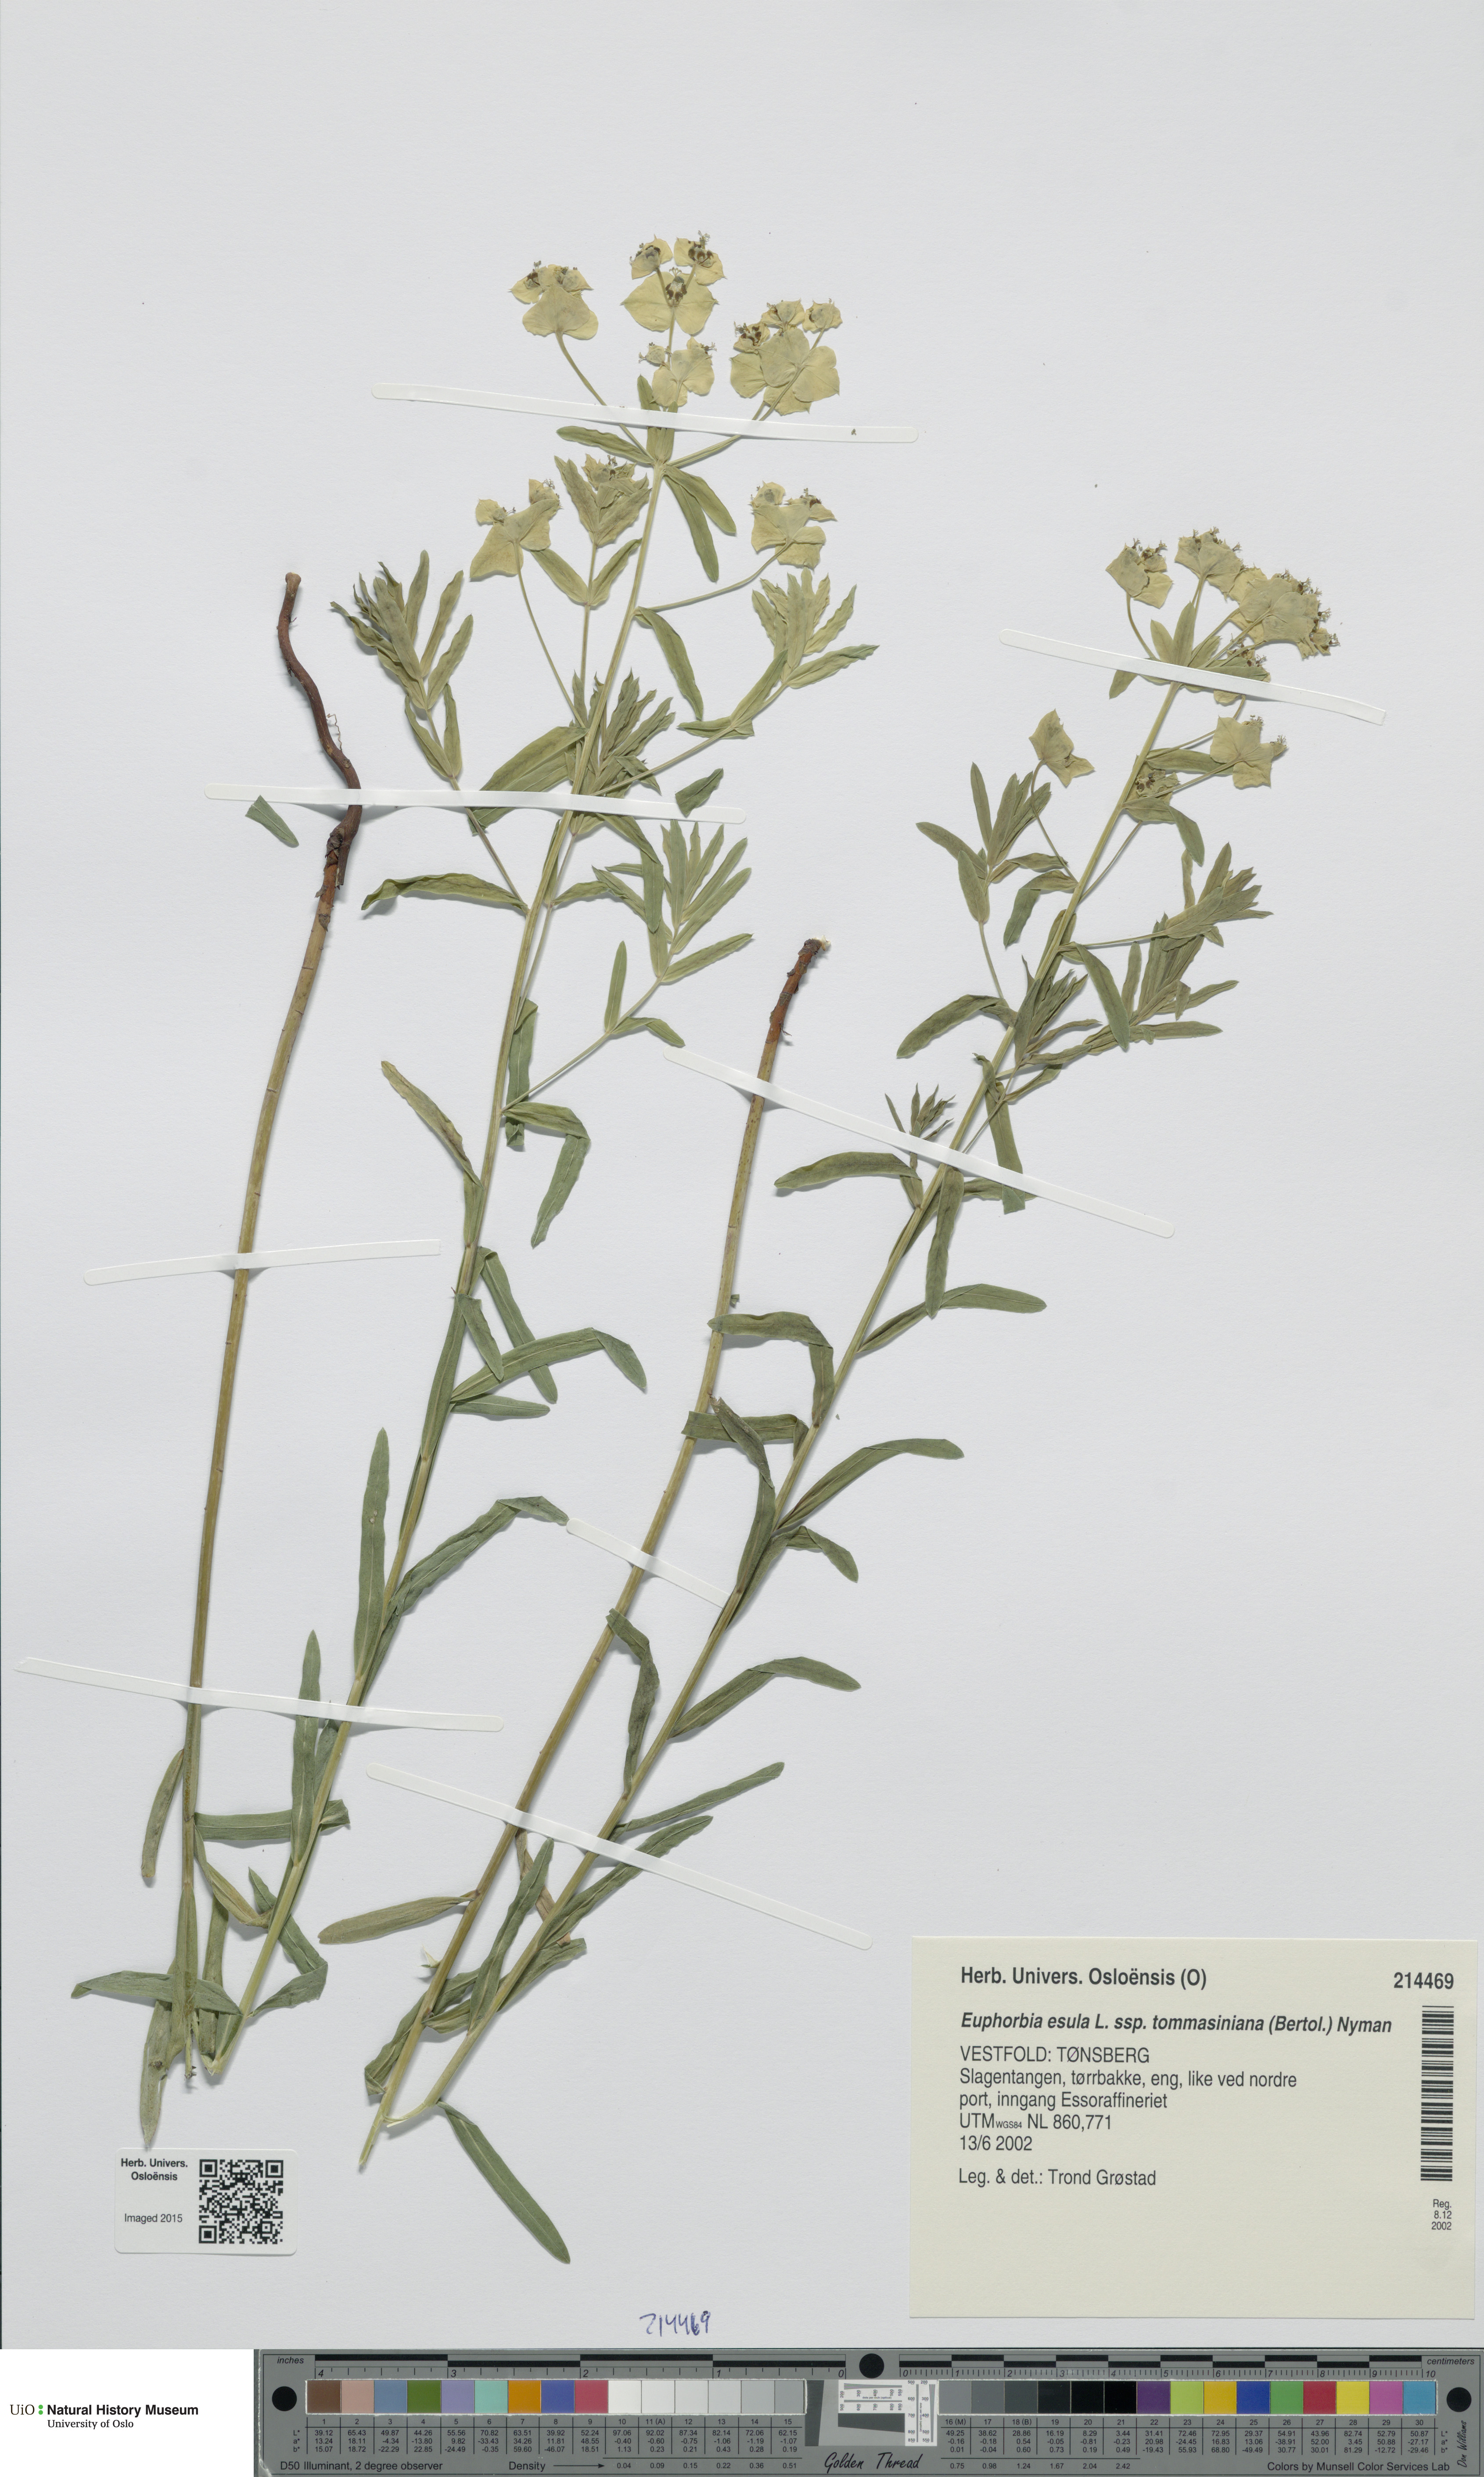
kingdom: Plantae
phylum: Tracheophyta
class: Magnoliopsida
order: Malpighiales
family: Euphorbiaceae
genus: Euphorbia
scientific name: Euphorbia tommasiniana
